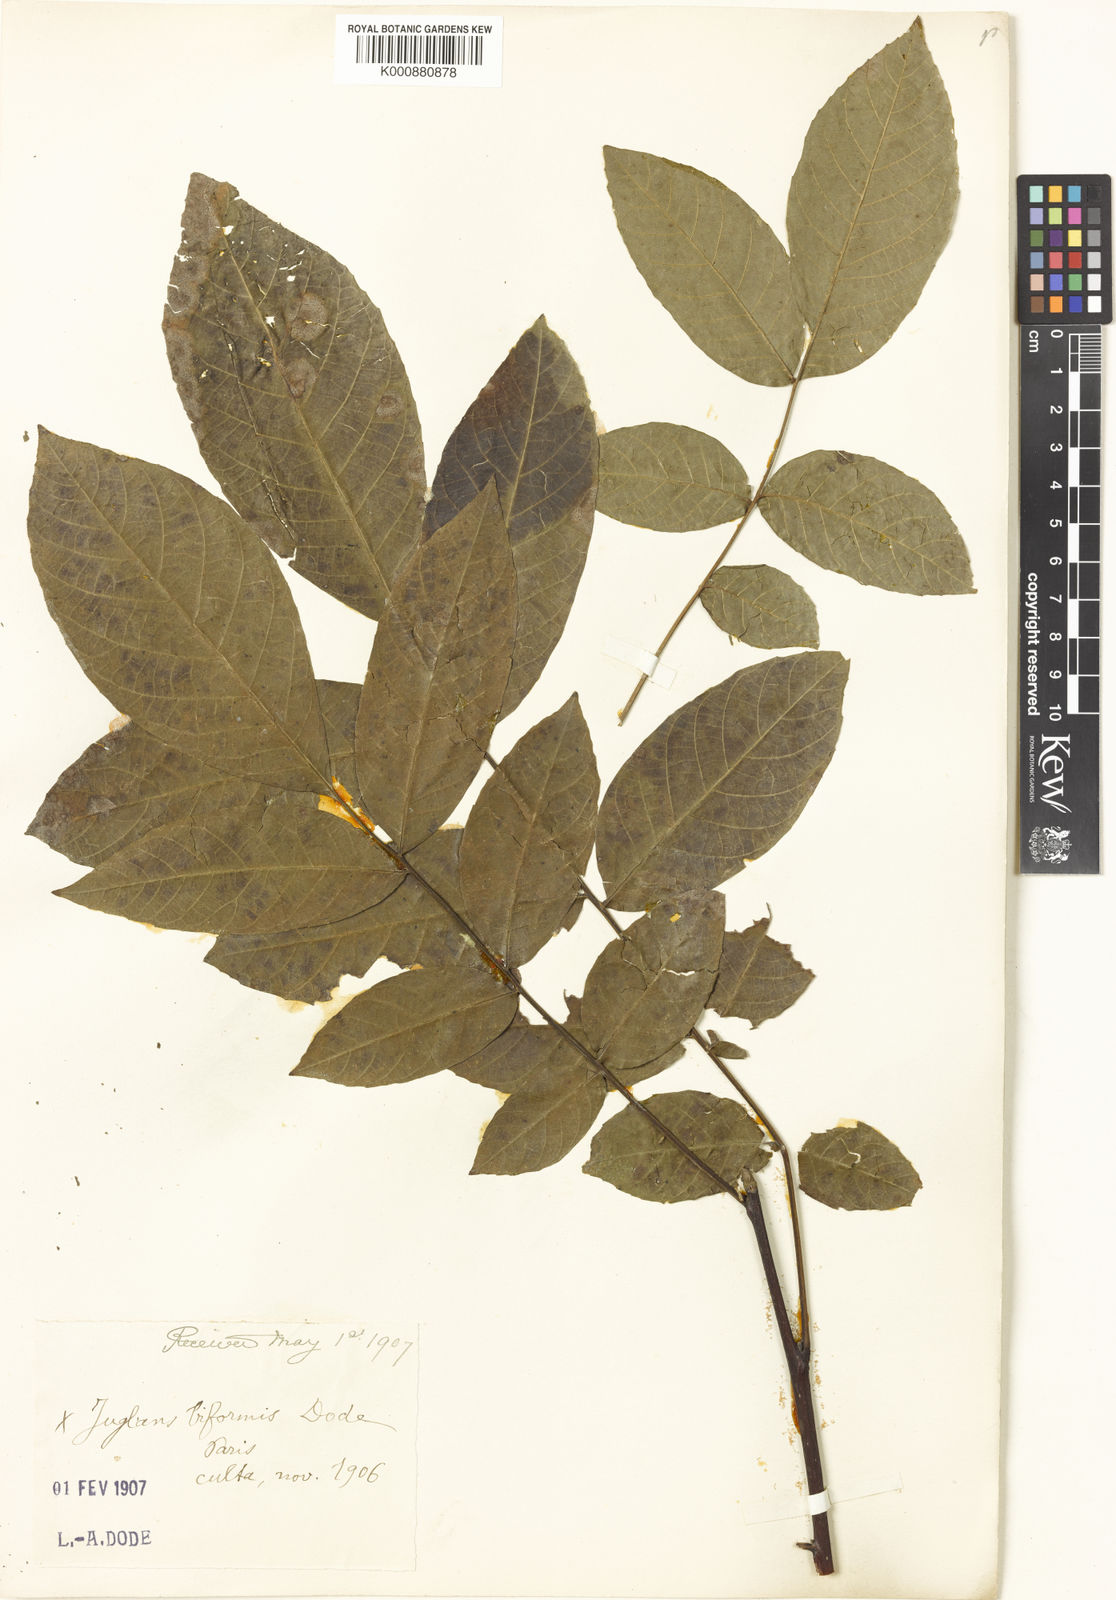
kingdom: Plantae
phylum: Tracheophyta
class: Magnoliopsida
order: Fagales
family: Juglandaceae
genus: Juglans
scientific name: Juglans
